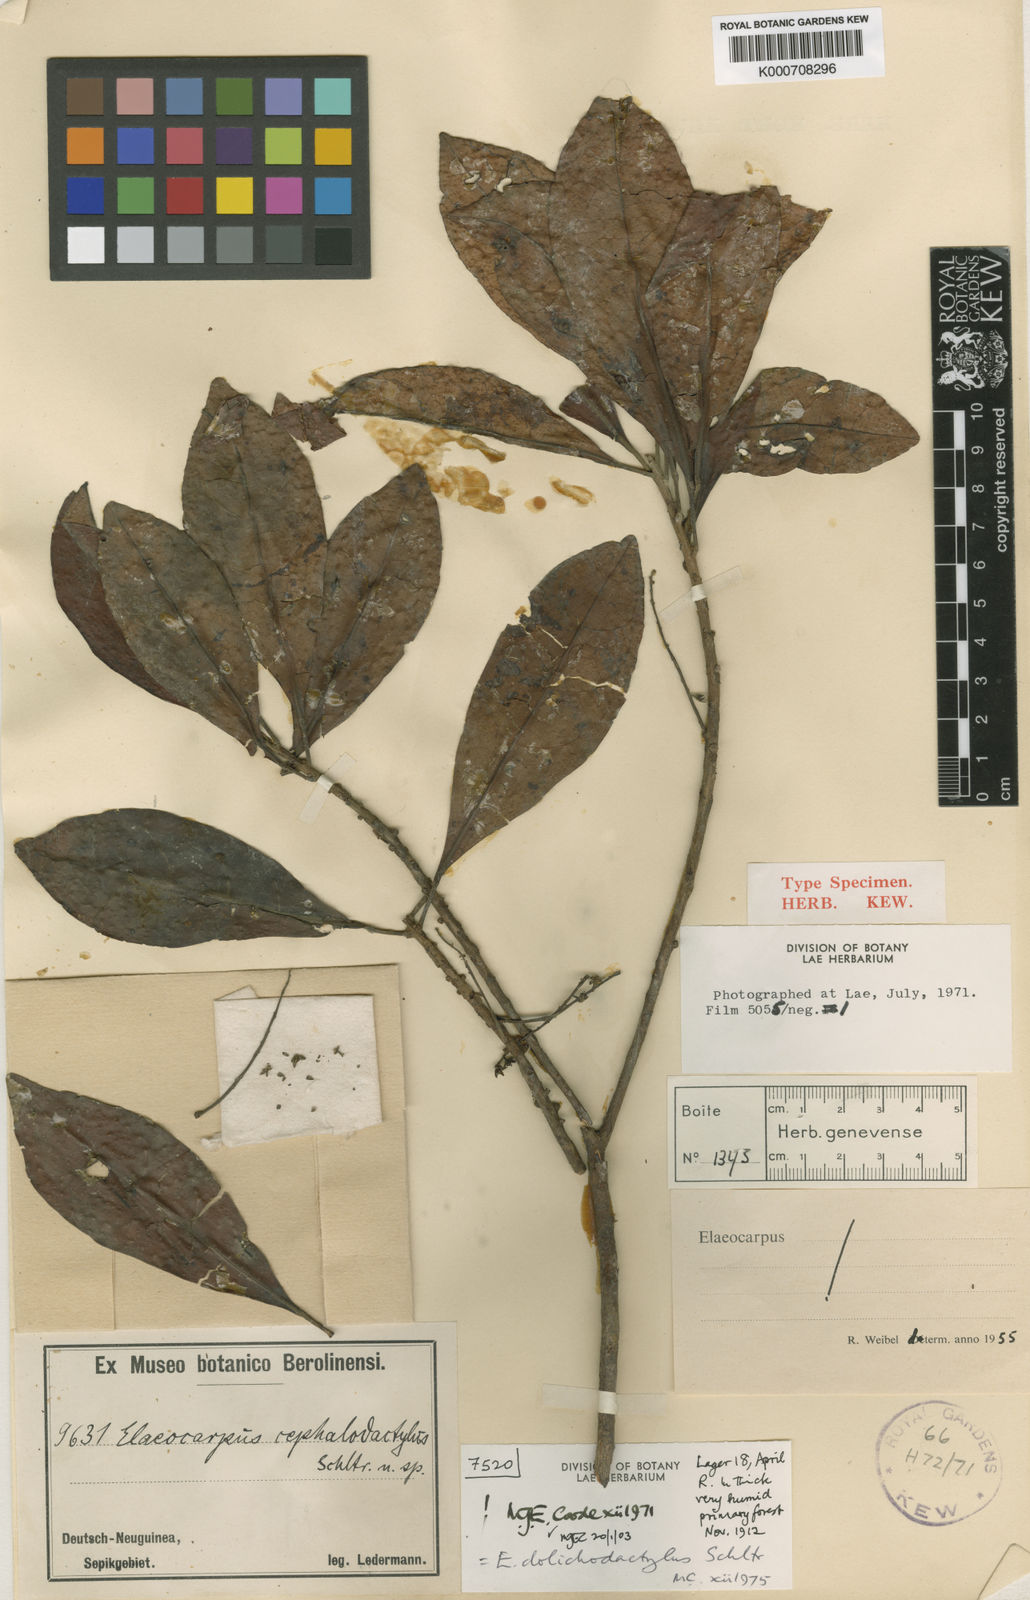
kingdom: Plantae
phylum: Tracheophyta
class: Magnoliopsida
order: Oxalidales
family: Elaeocarpaceae
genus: Elaeocarpus
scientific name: Elaeocarpus dolichodactylus
